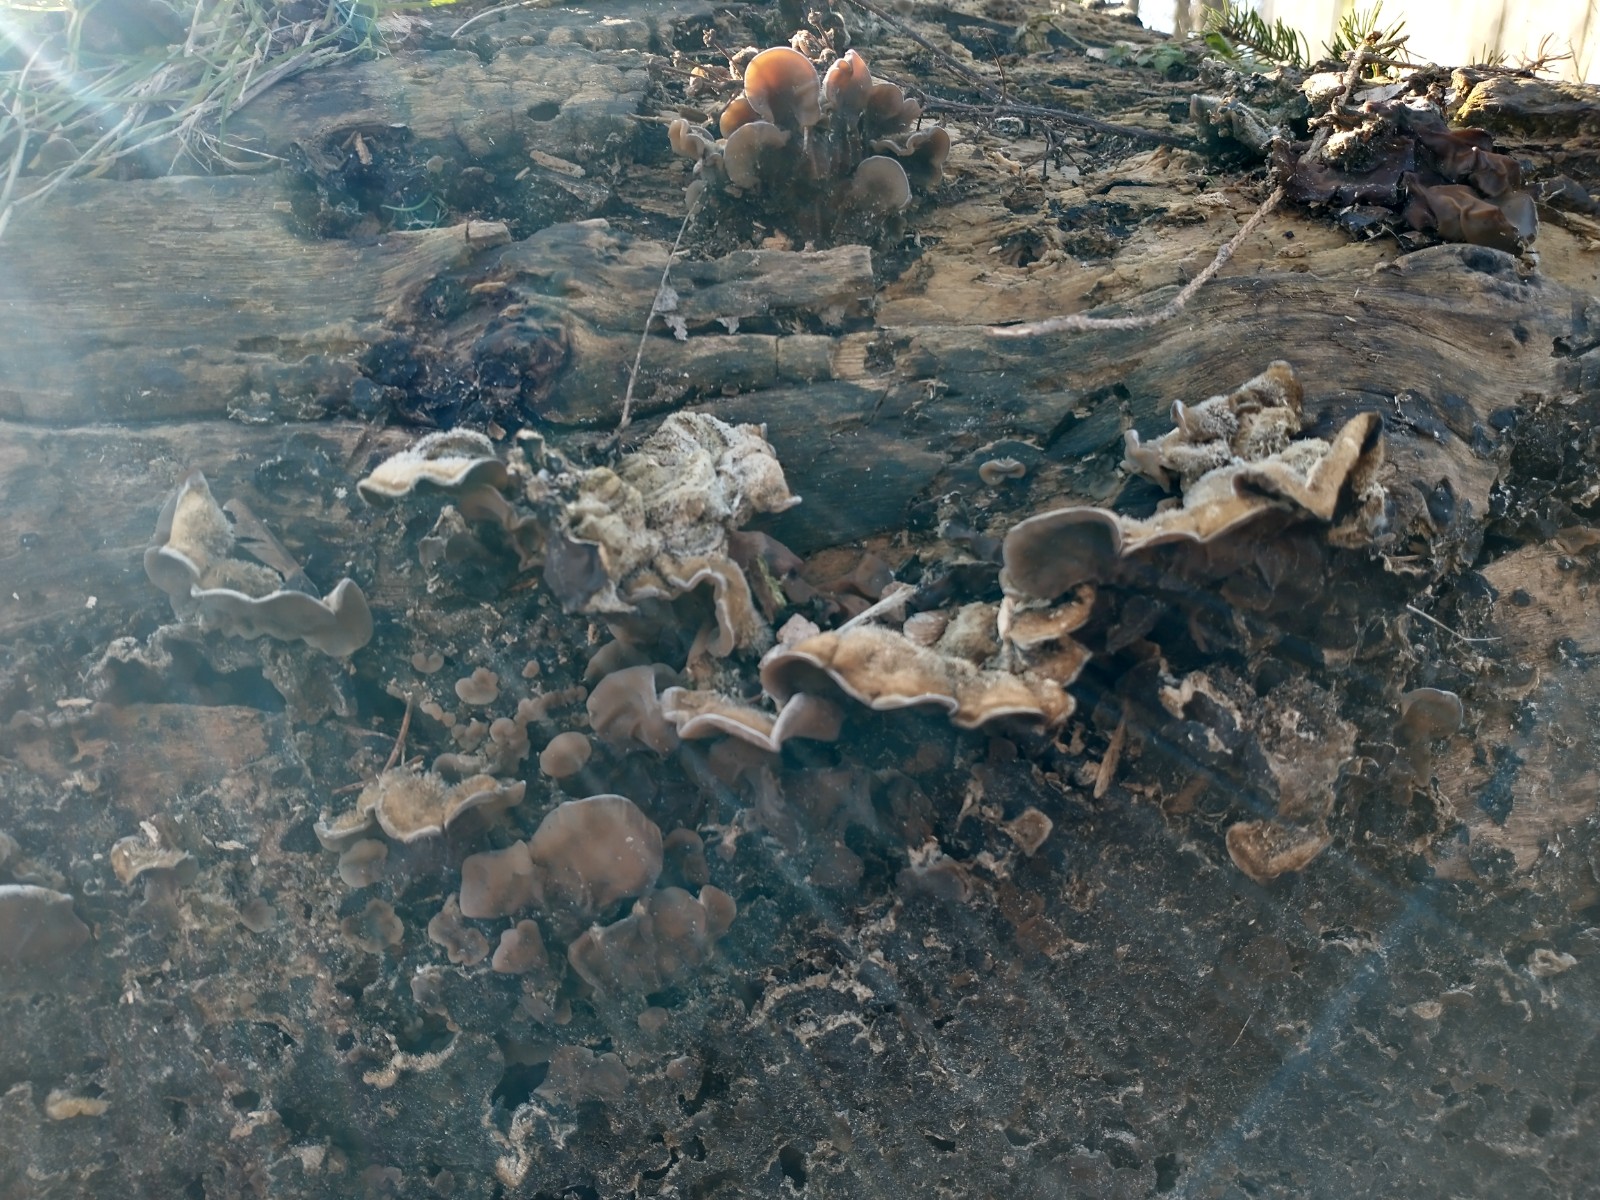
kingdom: Fungi
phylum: Basidiomycota
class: Agaricomycetes
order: Auriculariales
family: Auriculariaceae
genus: Auricularia
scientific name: Auricularia mesenterica
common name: håret judasøre
